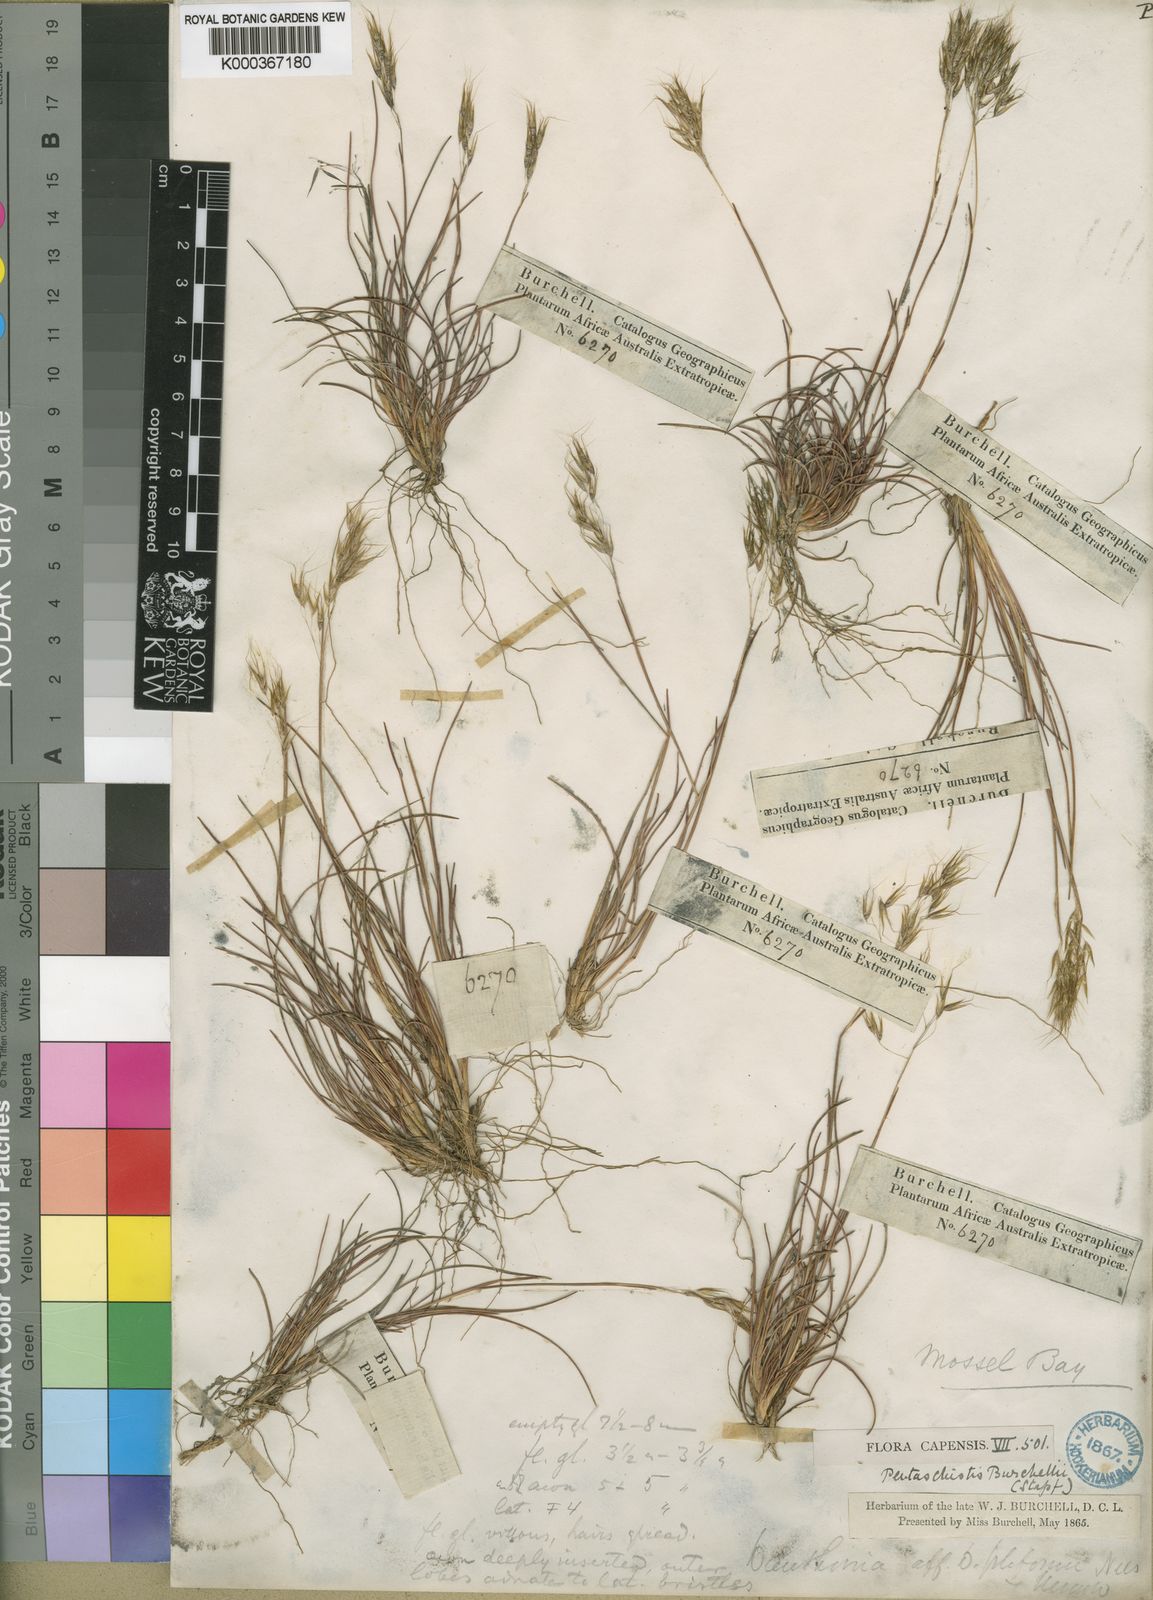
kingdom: Plantae
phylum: Tracheophyta
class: Liliopsida
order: Poales
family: Poaceae
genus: Pentameris
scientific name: Pentameris cirrhulosa
